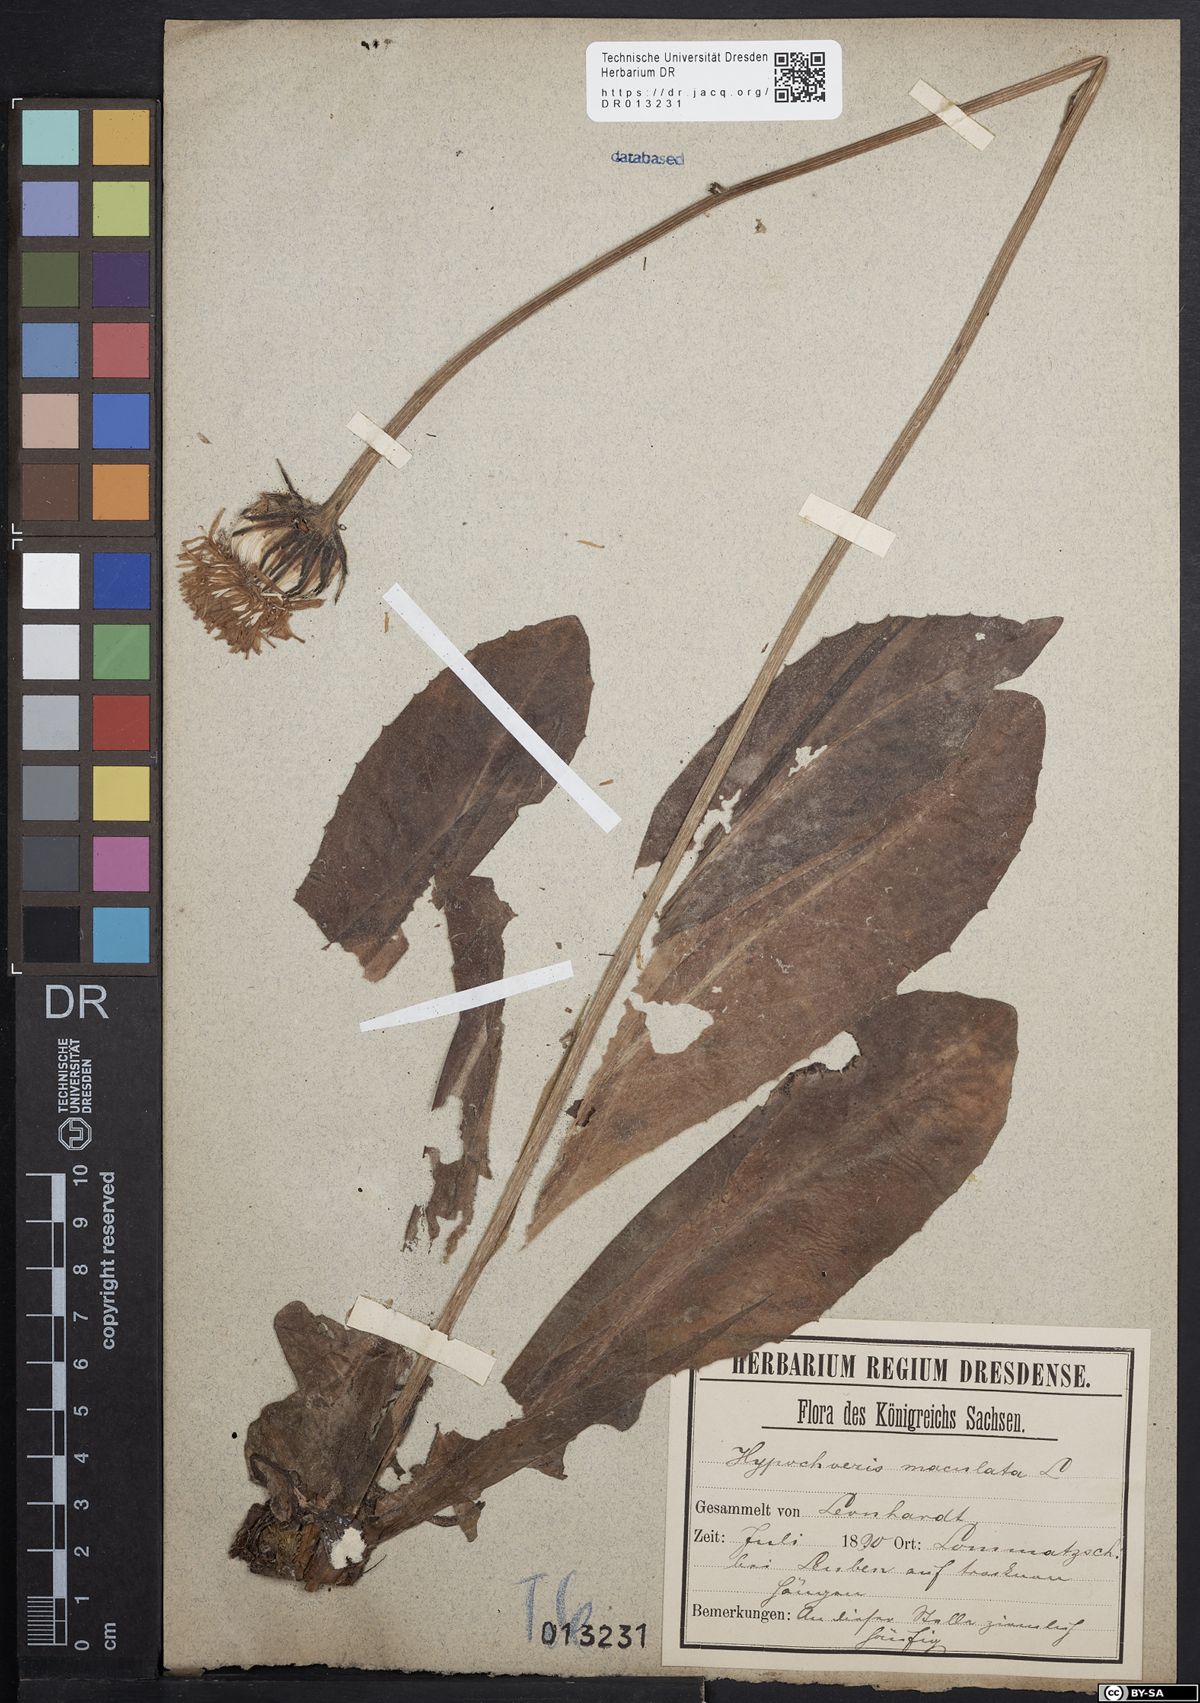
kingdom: Plantae
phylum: Tracheophyta
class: Magnoliopsida
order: Asterales
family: Asteraceae
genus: Trommsdorffia
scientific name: Trommsdorffia maculata
